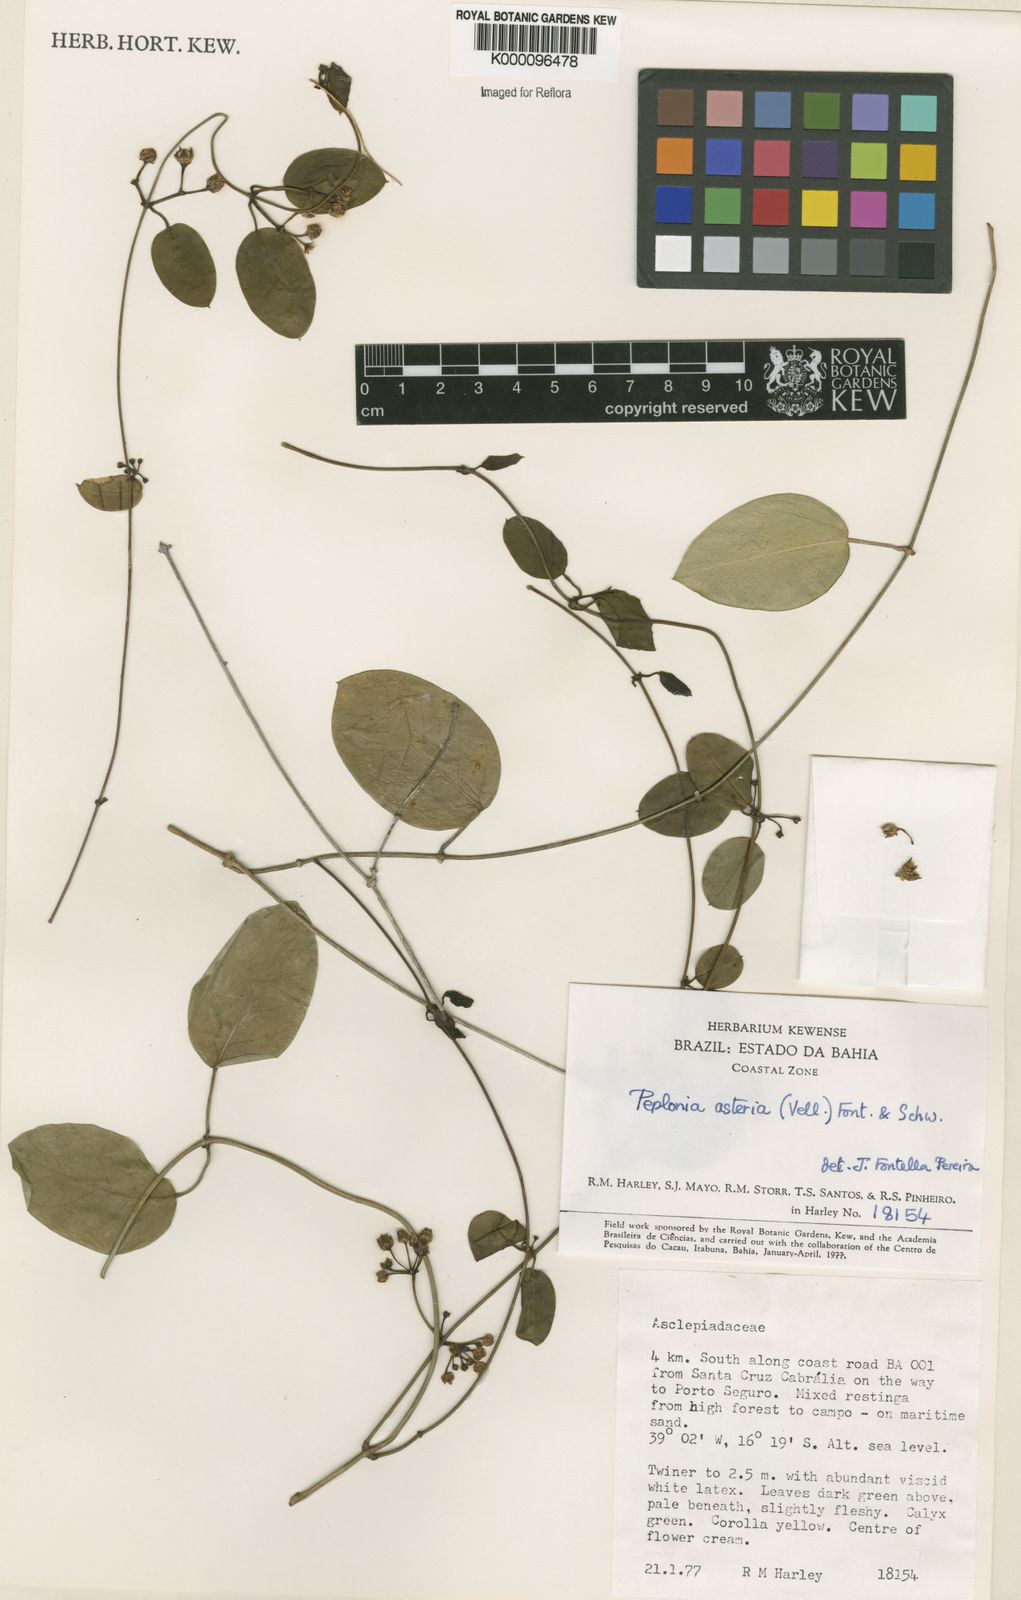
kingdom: Plantae
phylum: Tracheophyta
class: Magnoliopsida
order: Gentianales
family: Apocynaceae
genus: Peplonia
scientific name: Peplonia asteria
